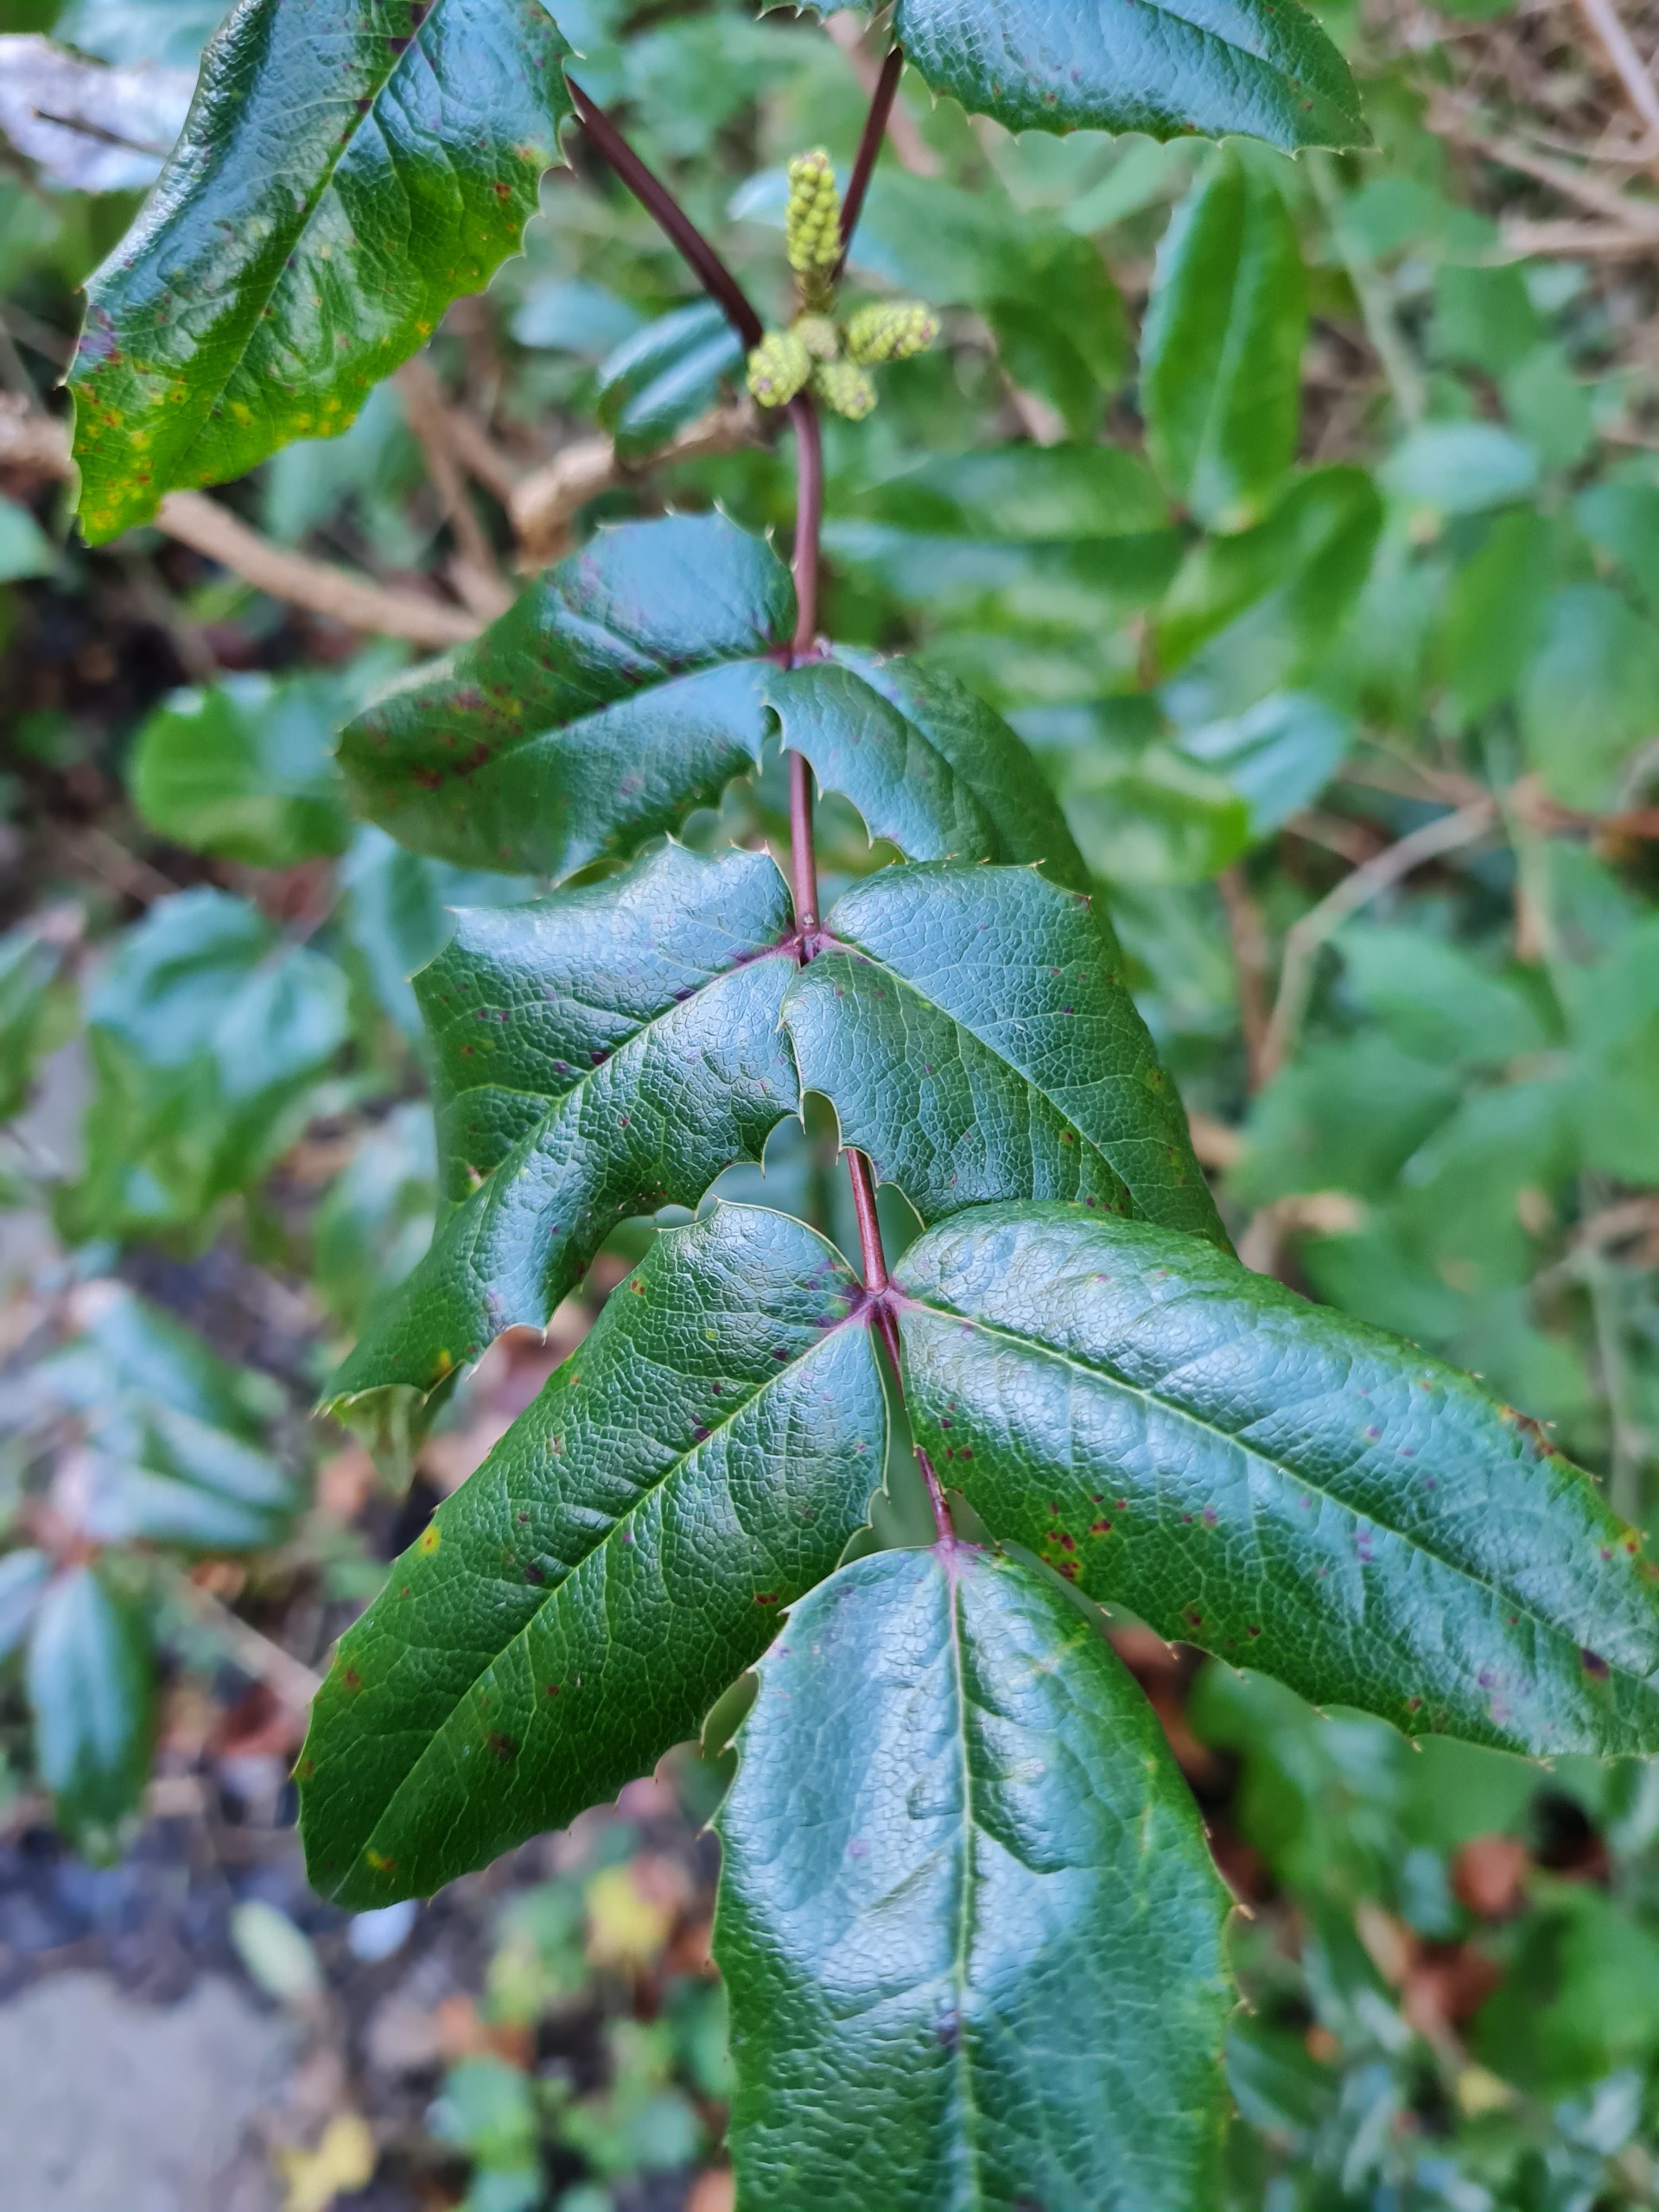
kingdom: Plantae
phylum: Tracheophyta
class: Magnoliopsida
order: Ranunculales
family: Berberidaceae
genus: Mahonia
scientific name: Mahonia aquifolium
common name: Almindelig mahonie
